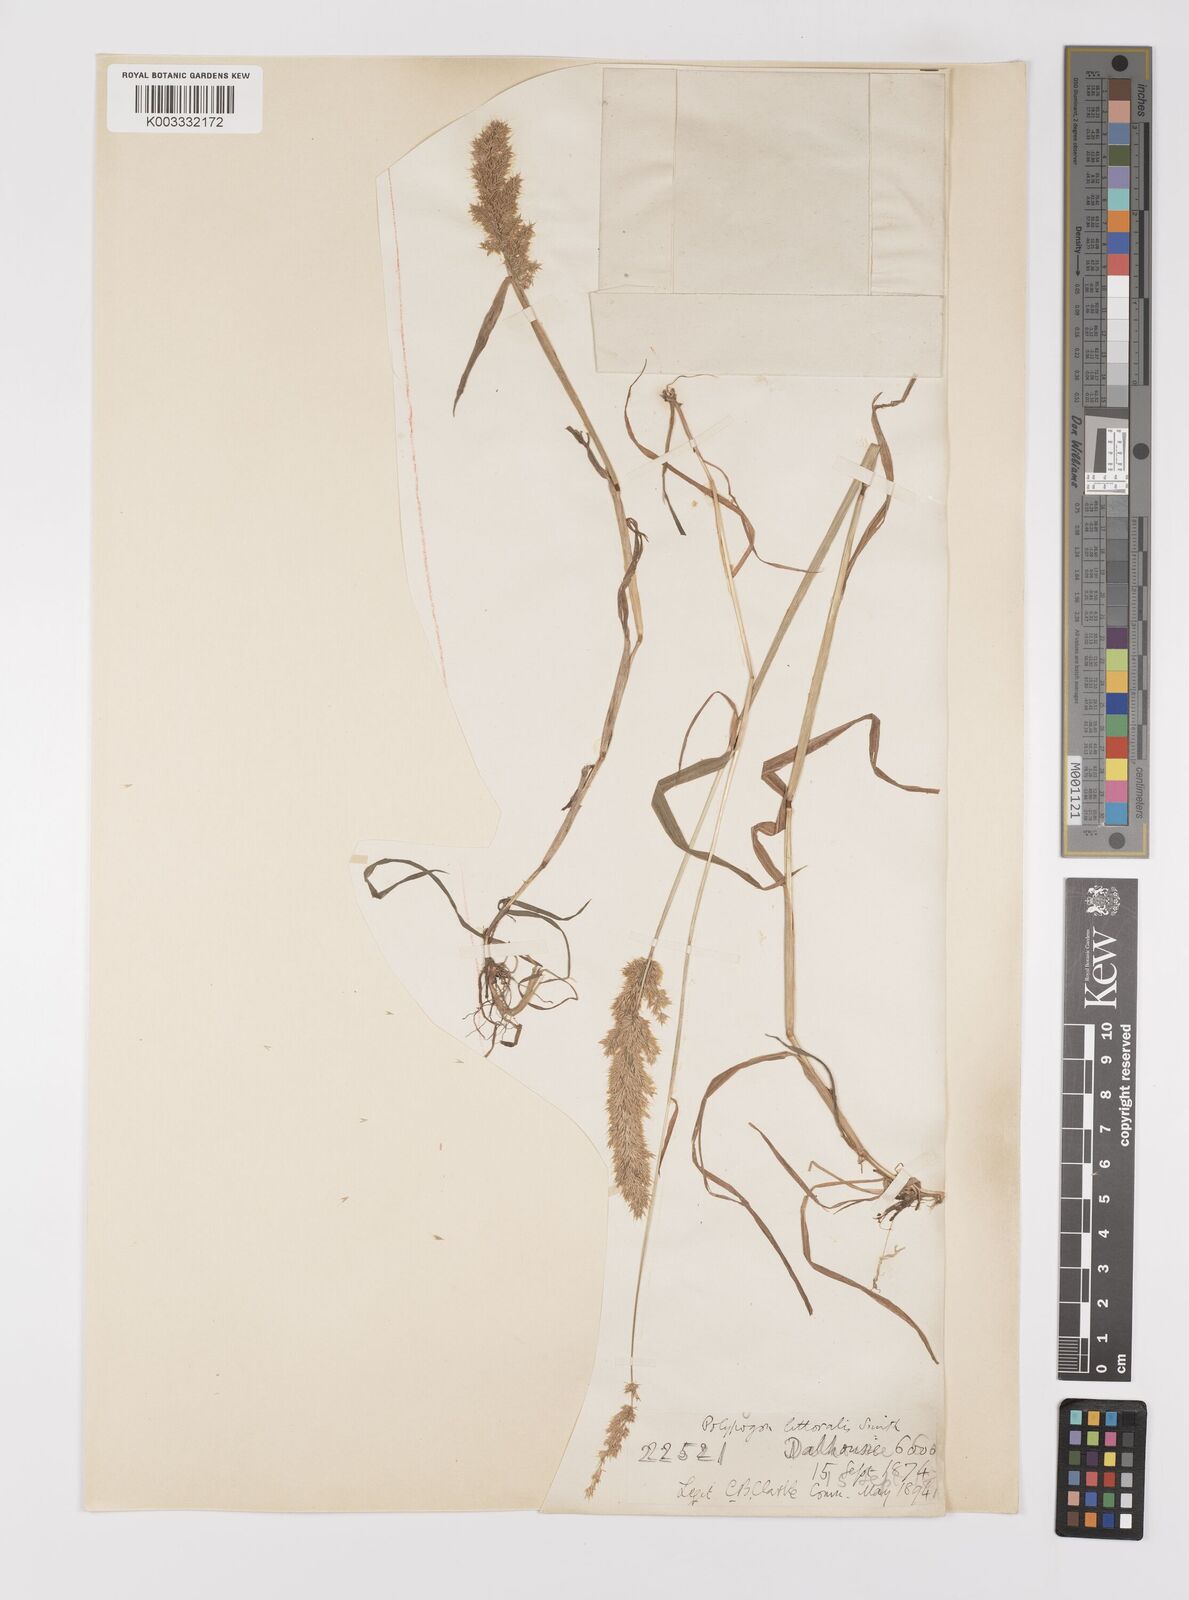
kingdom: Plantae
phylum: Tracheophyta
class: Liliopsida
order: Poales
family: Poaceae
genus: Polypogon
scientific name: Polypogon fugax
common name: Asia minor bluegrass
